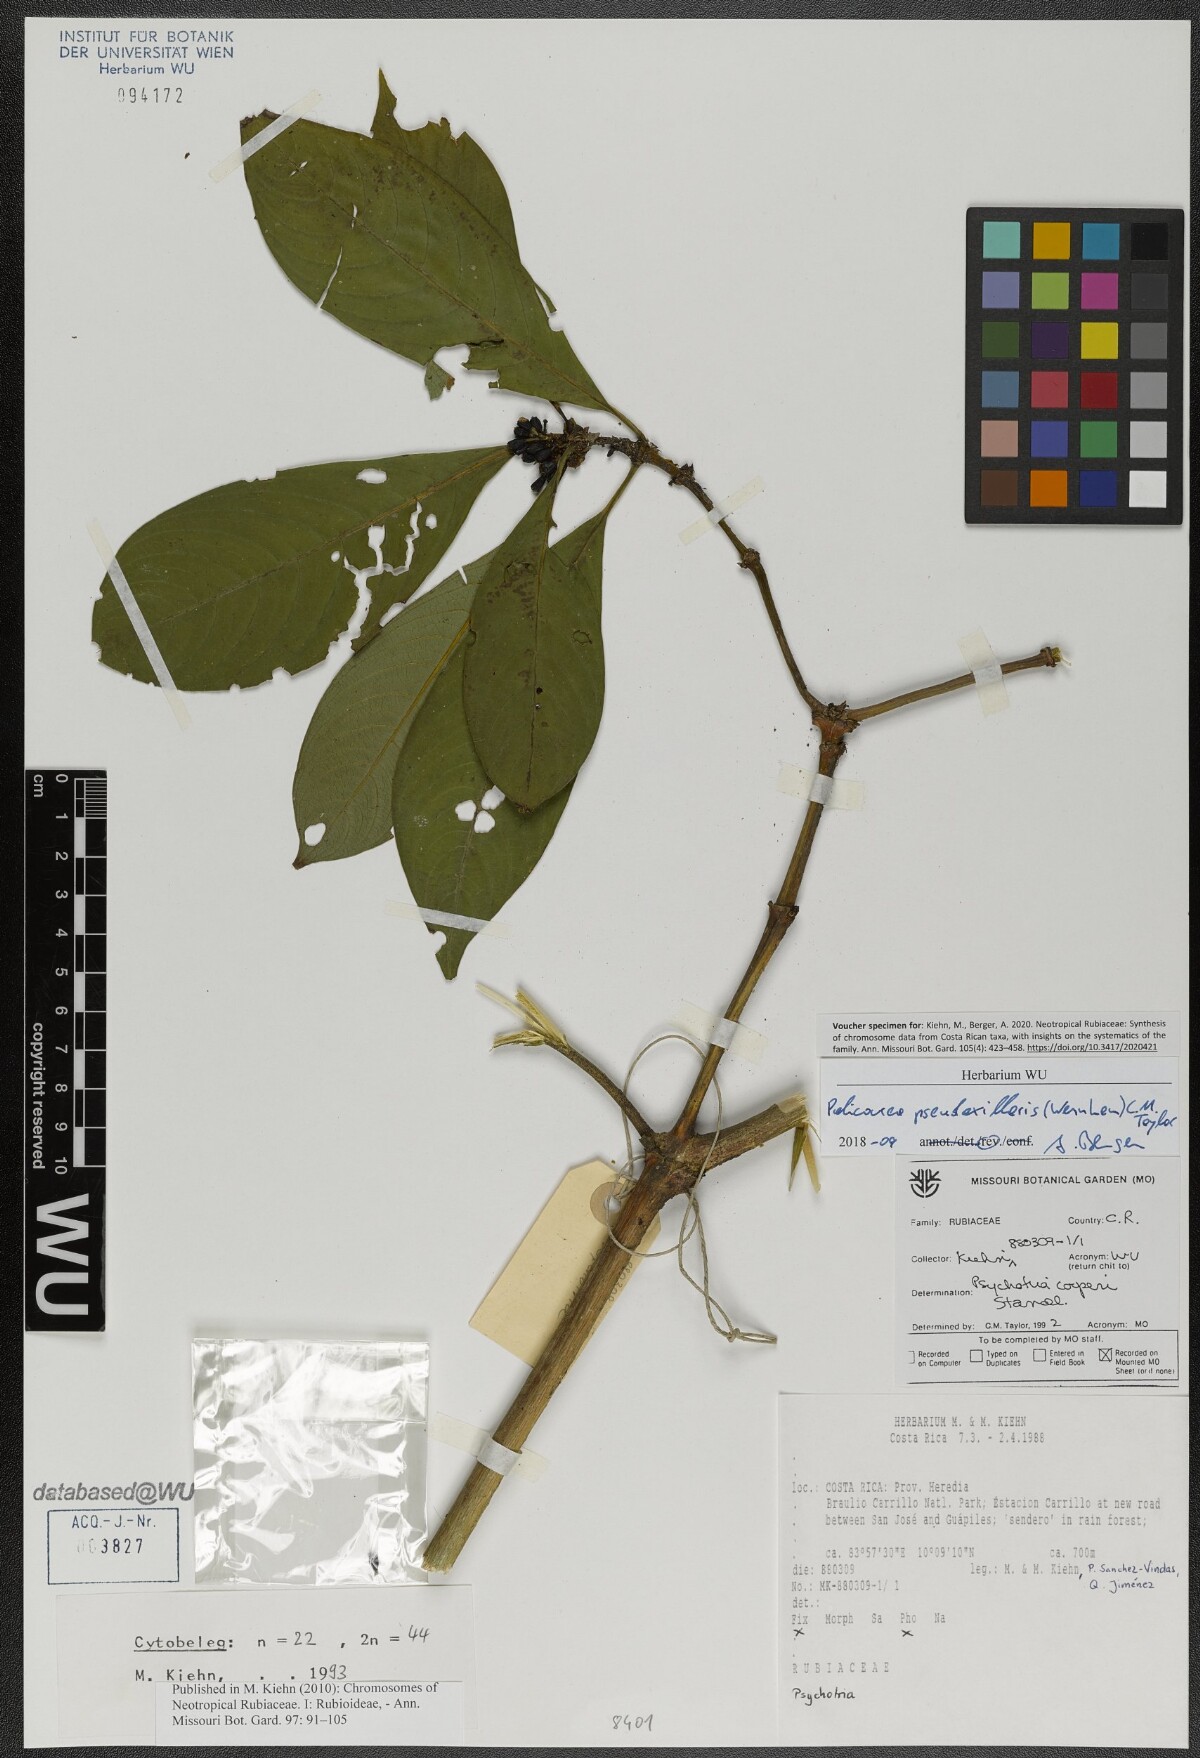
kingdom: Plantae
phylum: Tracheophyta
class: Magnoliopsida
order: Gentianales
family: Rubiaceae
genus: Palicourea
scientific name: Palicourea pseudaxillaris
